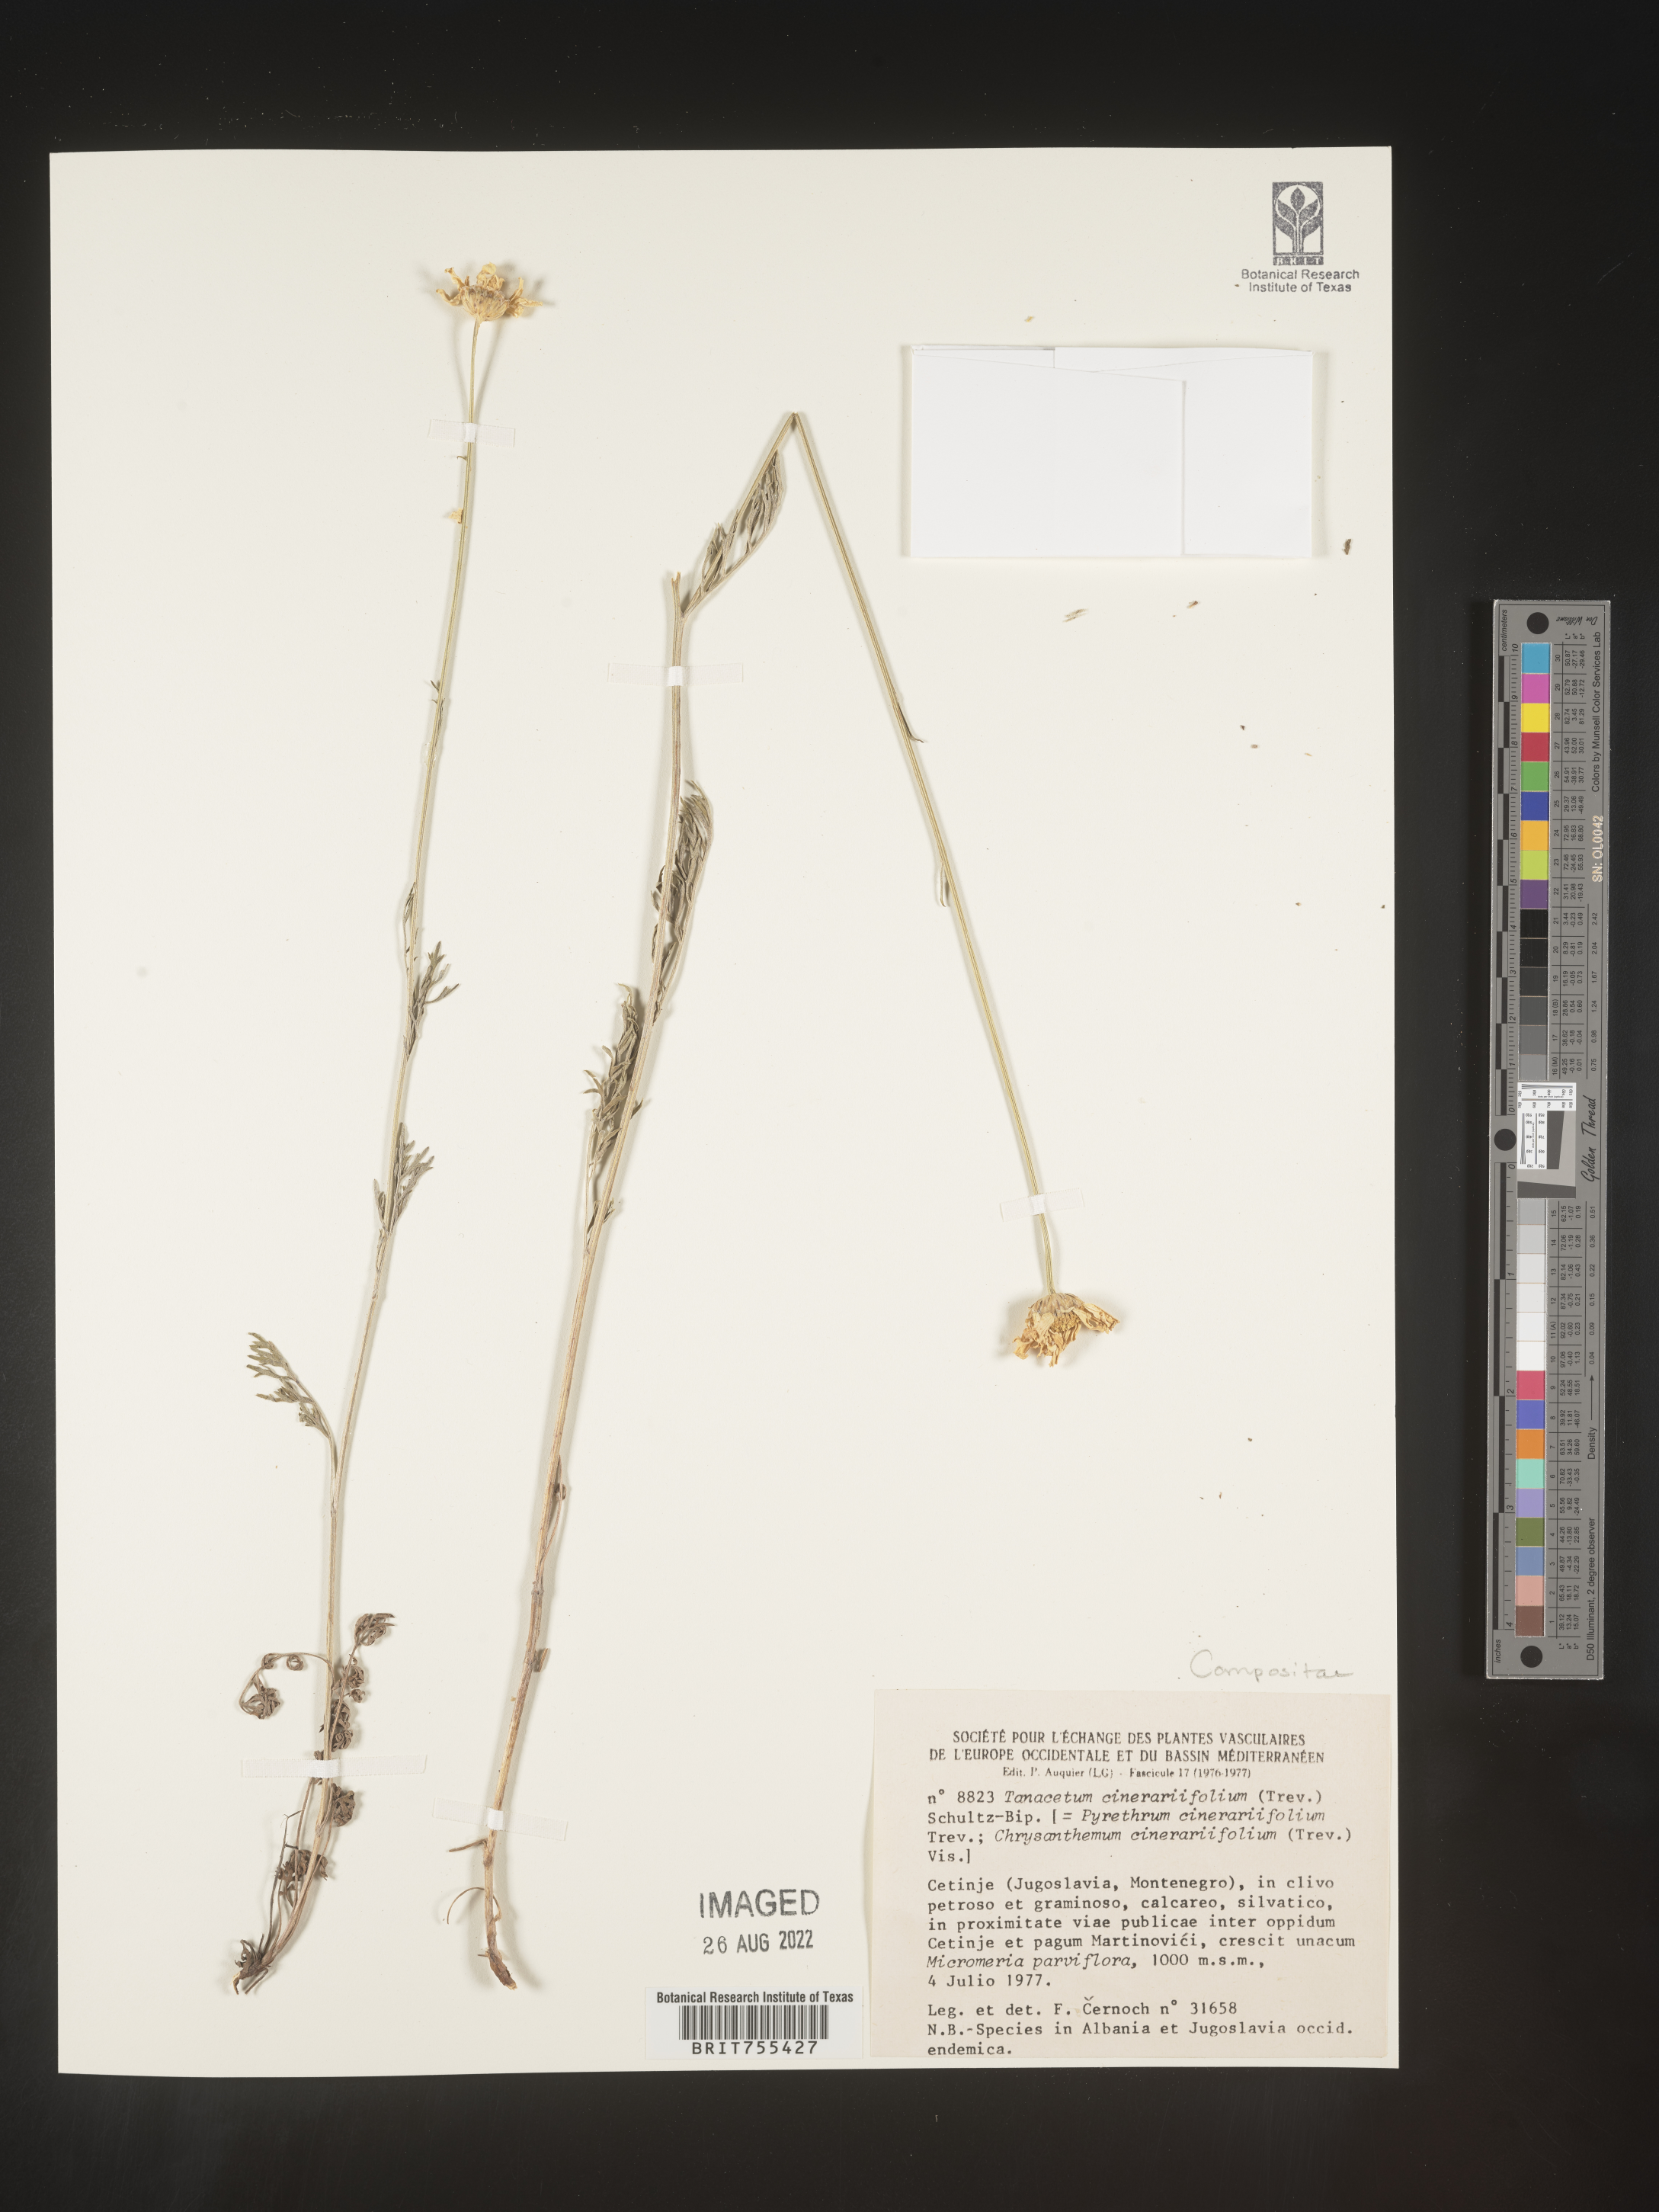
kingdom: Plantae
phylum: Tracheophyta
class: Magnoliopsida
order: Asterales
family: Asteraceae
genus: Tanacetum
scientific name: Tanacetum
